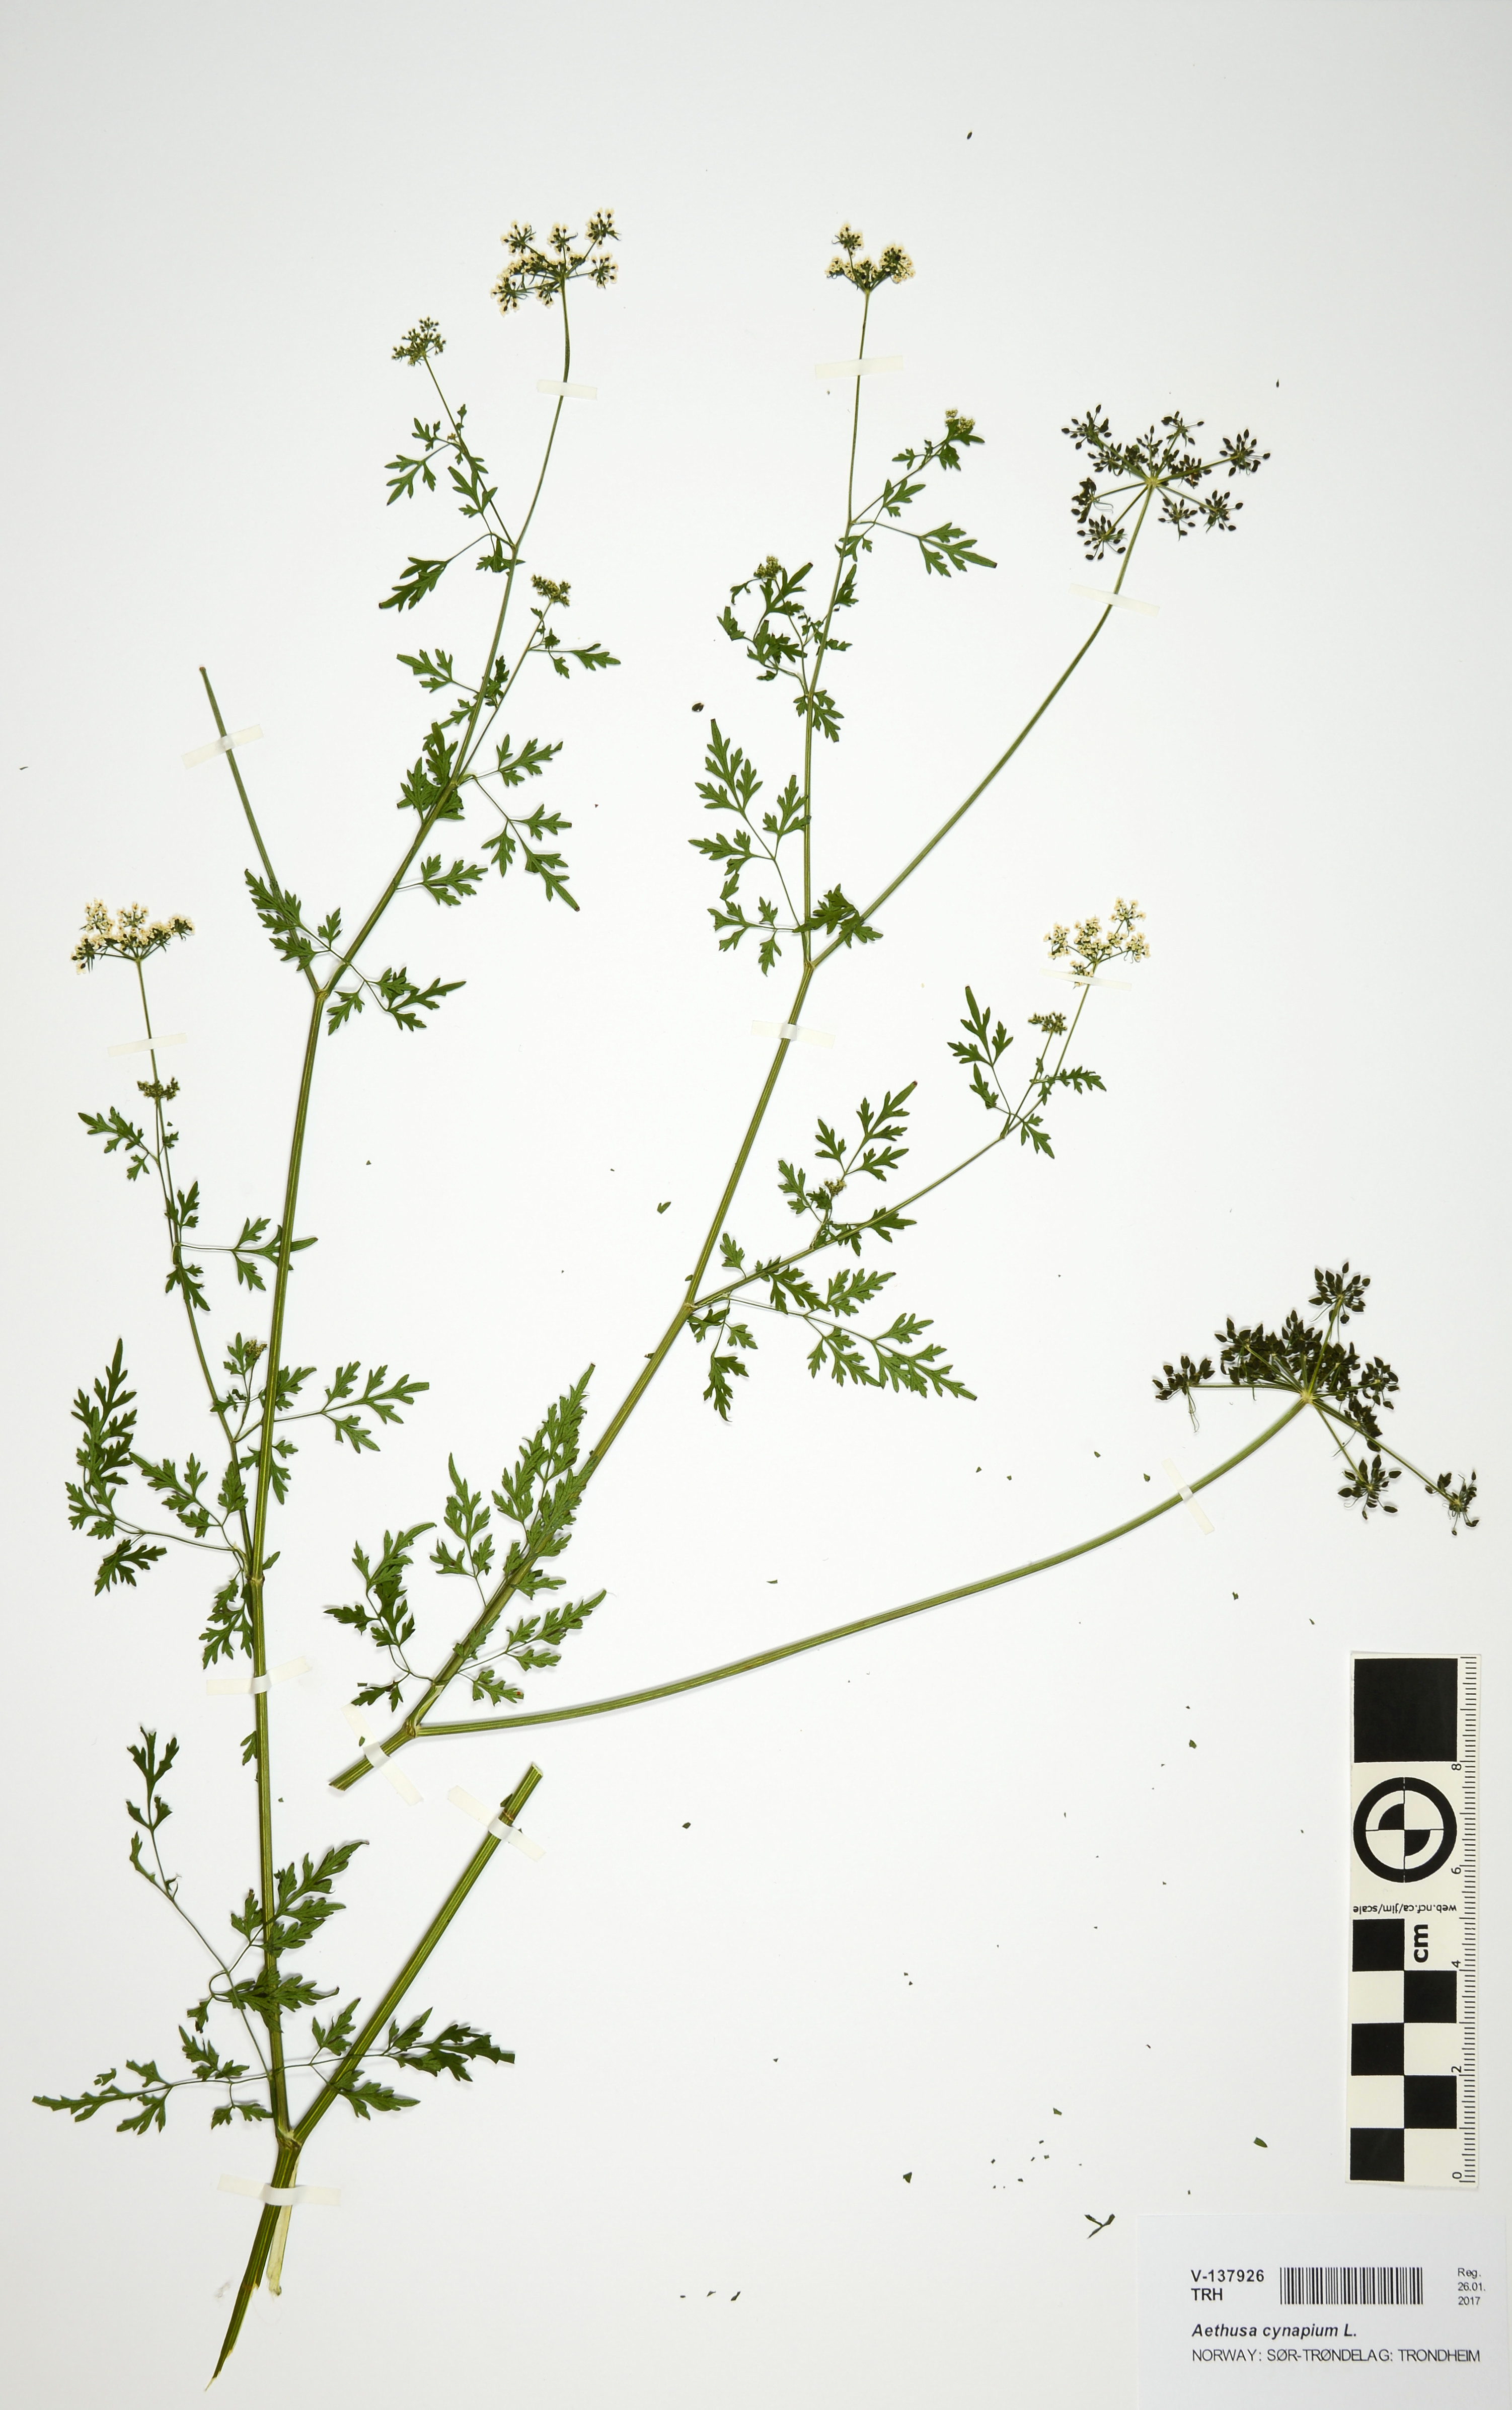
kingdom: Plantae
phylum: Tracheophyta
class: Magnoliopsida
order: Apiales
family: Apiaceae
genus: Aethusa
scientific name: Aethusa cynapium
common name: Fool's parsley
